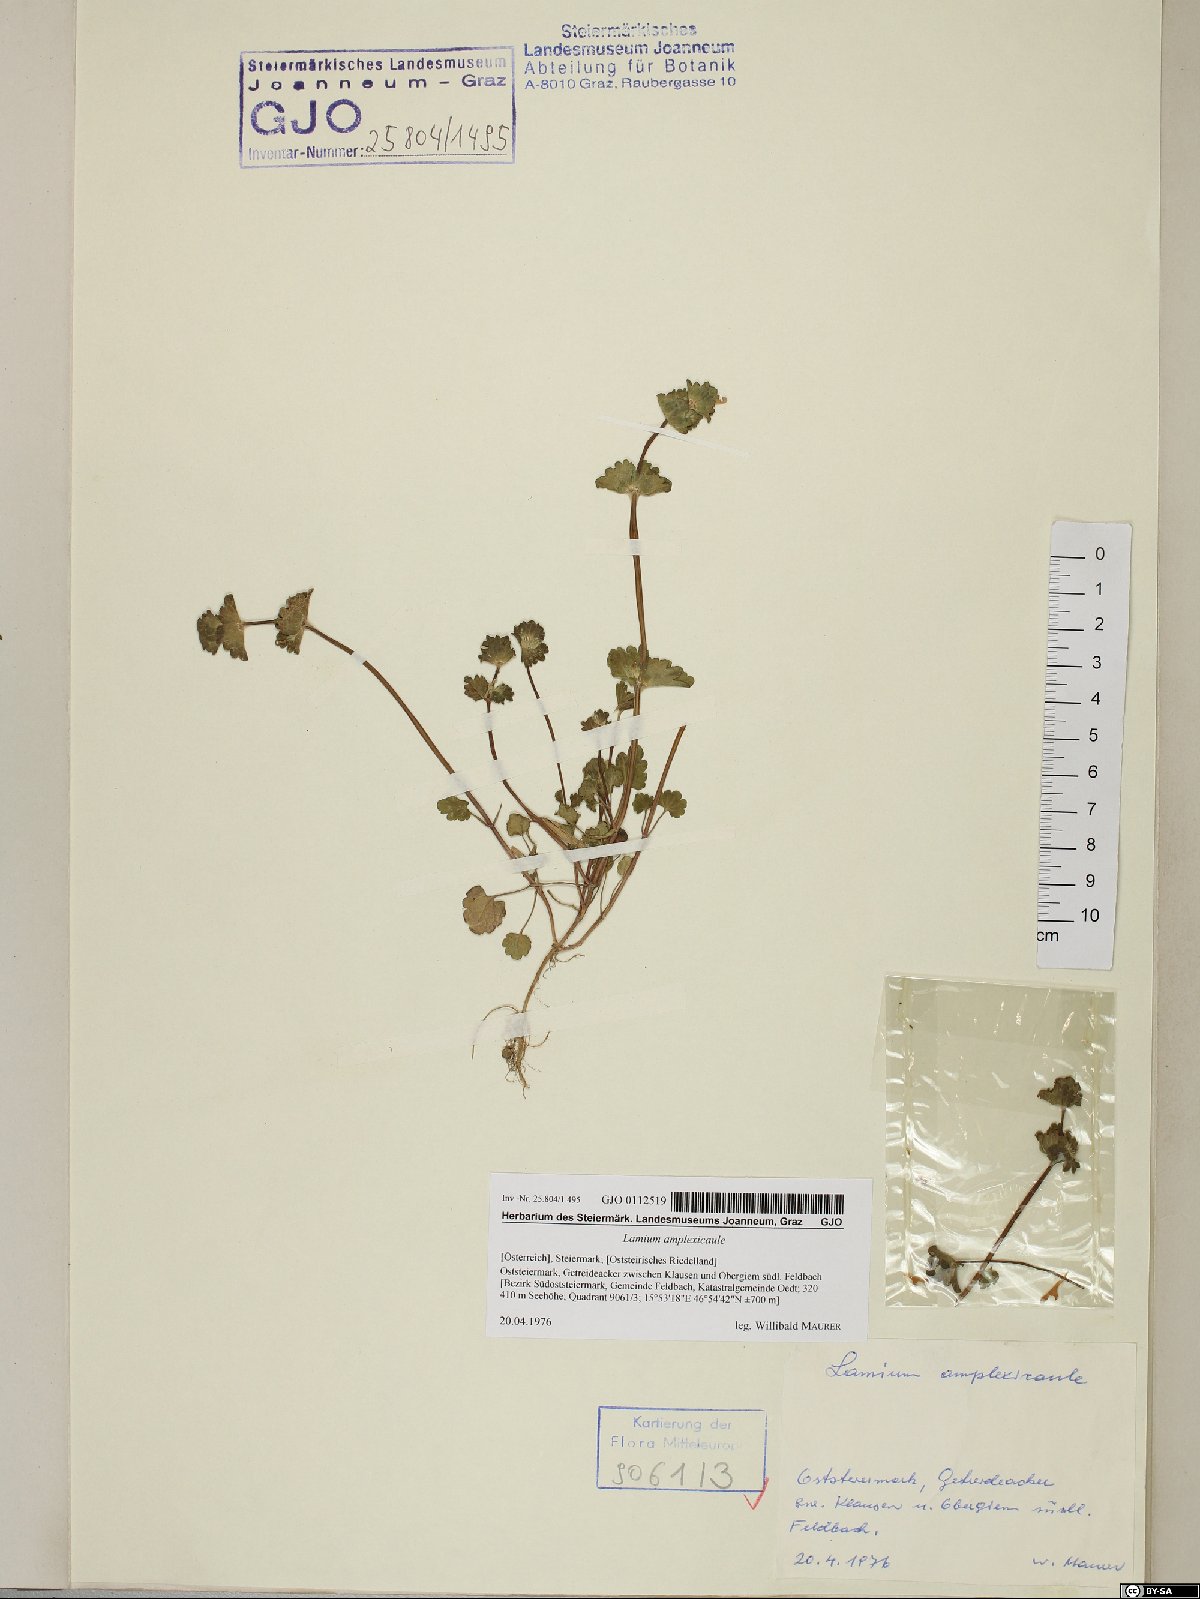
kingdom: Plantae
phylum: Tracheophyta
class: Magnoliopsida
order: Lamiales
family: Lamiaceae
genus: Lamium
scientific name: Lamium amplexicaule
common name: Henbit dead-nettle
